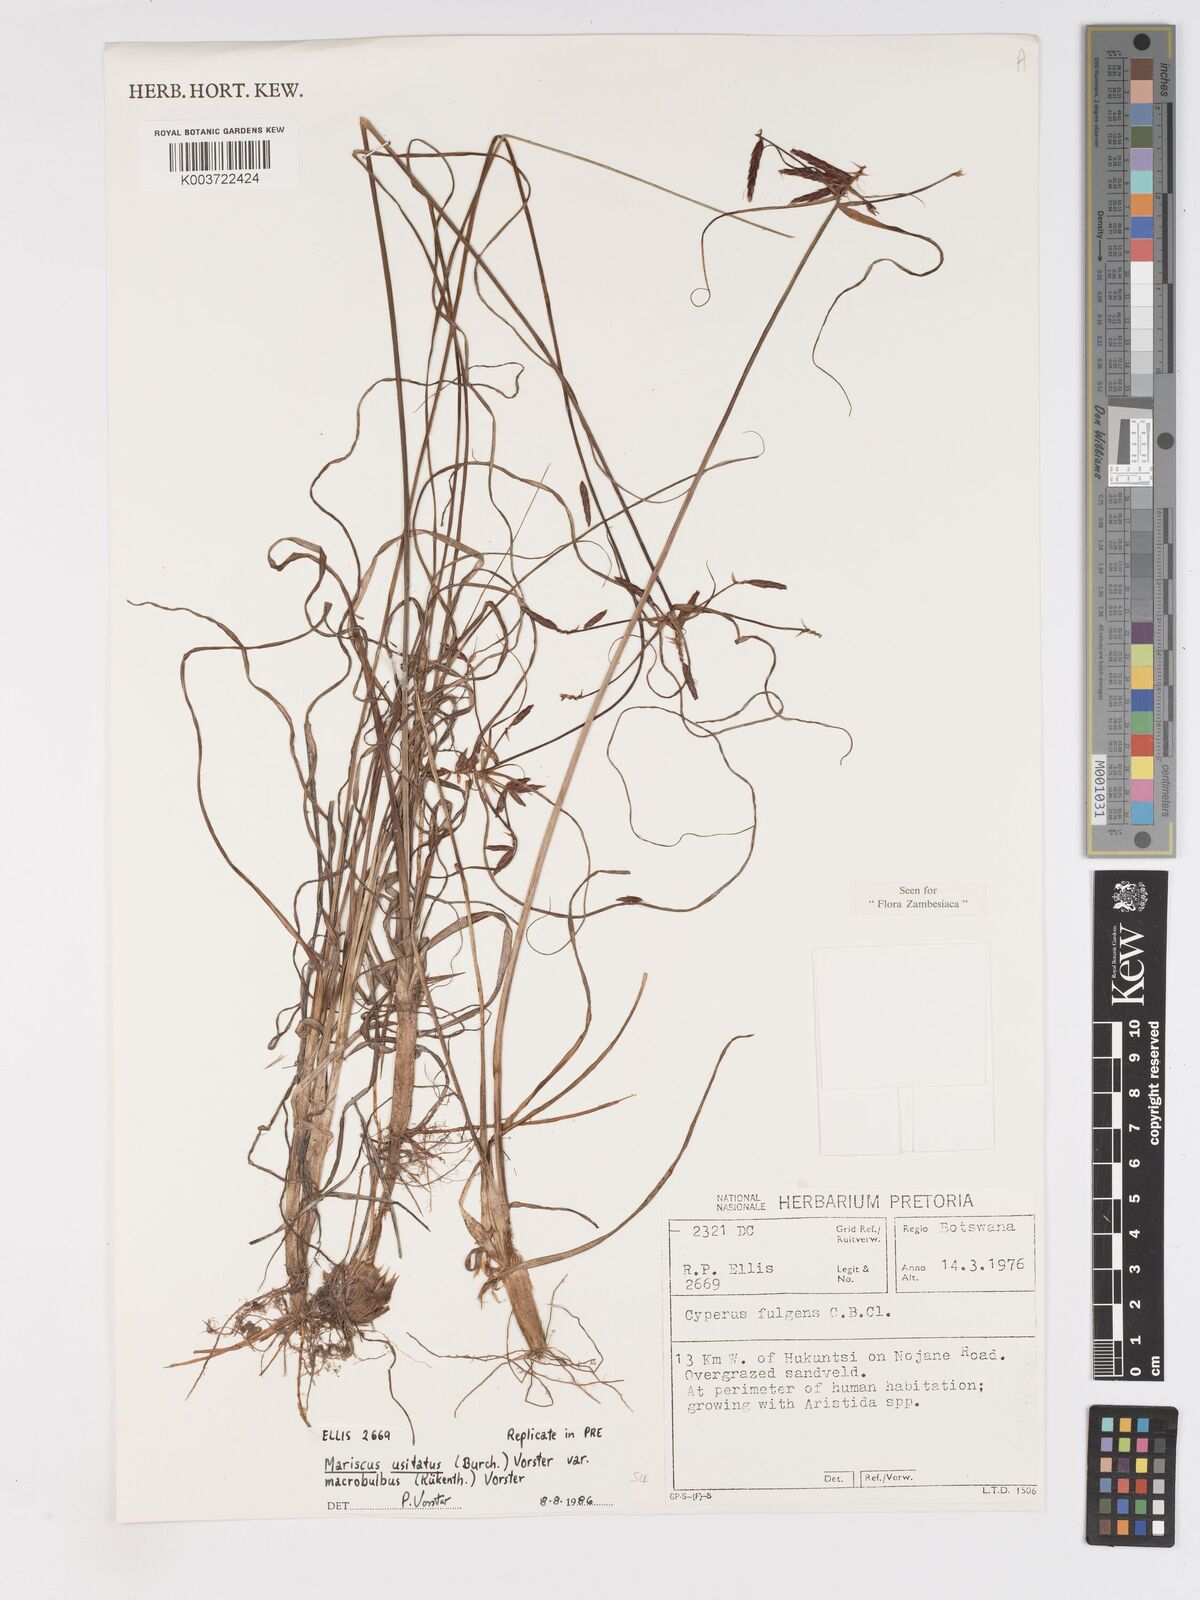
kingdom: Plantae
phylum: Tracheophyta
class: Liliopsida
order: Poales
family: Cyperaceae
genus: Cyperus
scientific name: Cyperus usitatus
